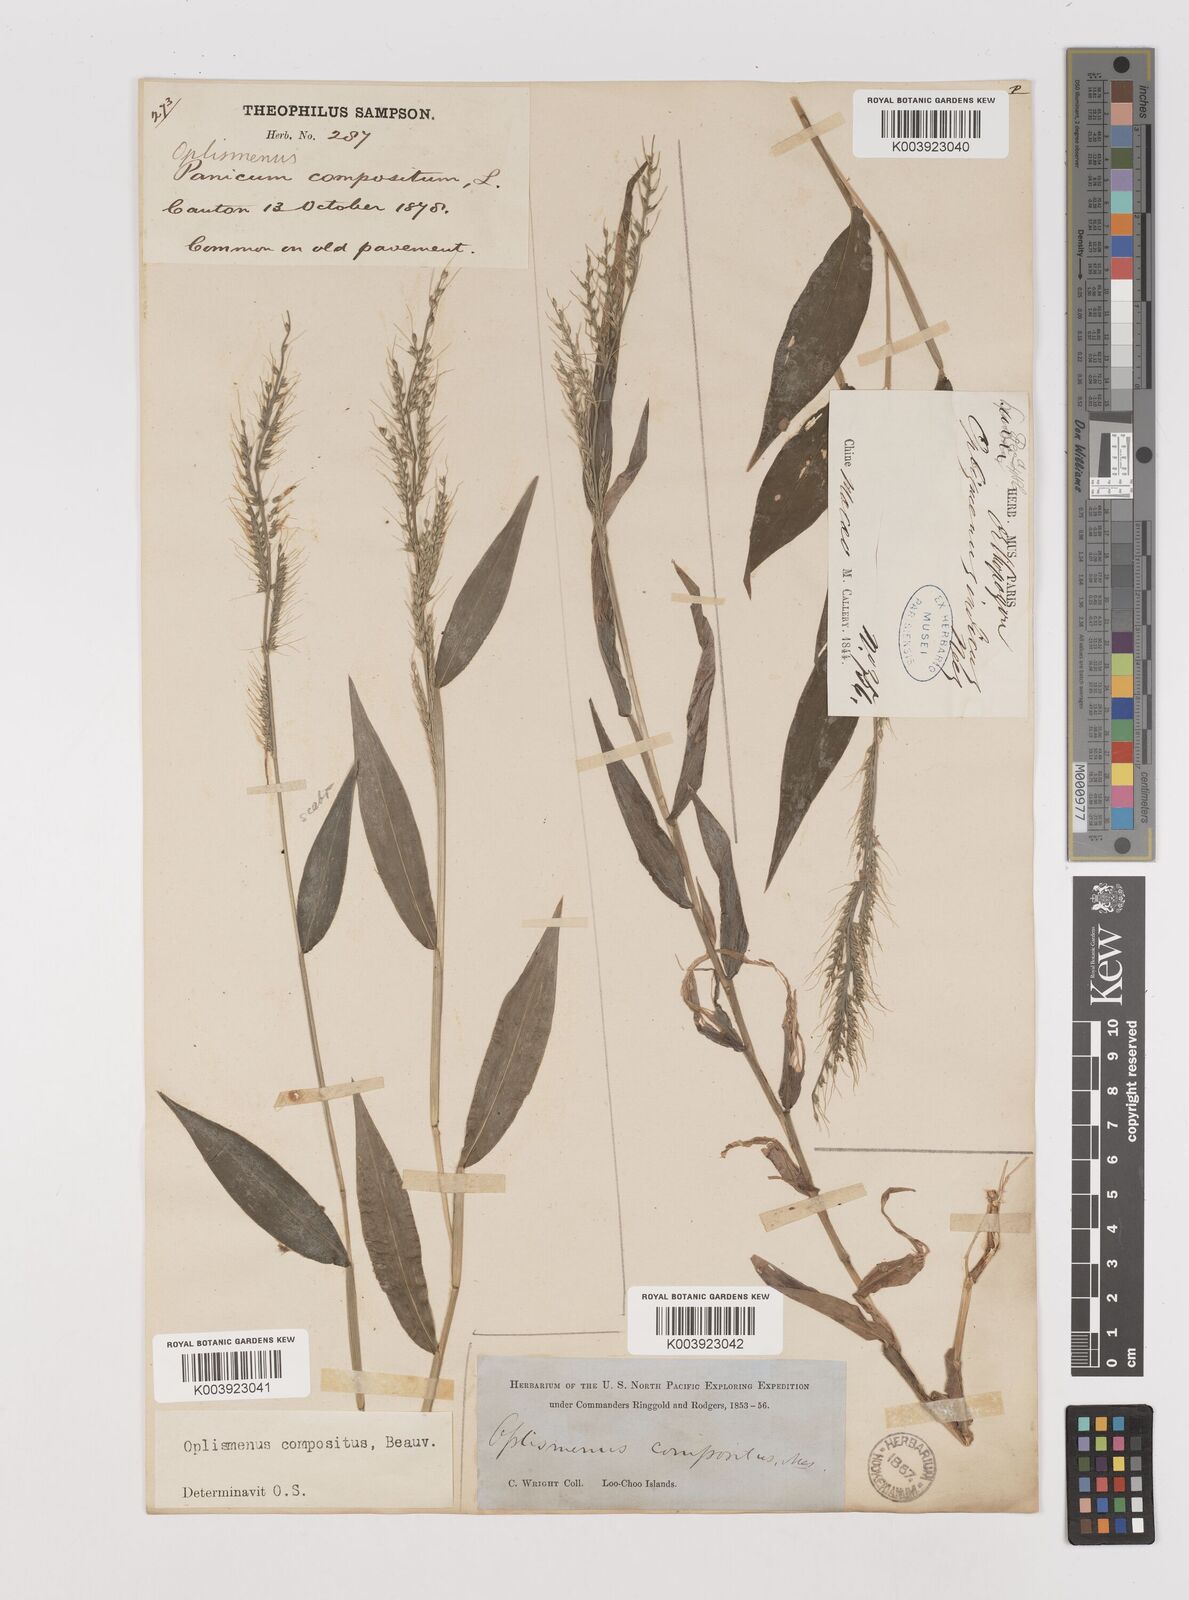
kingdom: Plantae
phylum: Tracheophyta
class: Liliopsida
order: Poales
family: Poaceae
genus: Oplismenus
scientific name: Oplismenus compositus
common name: Running mountain grass
